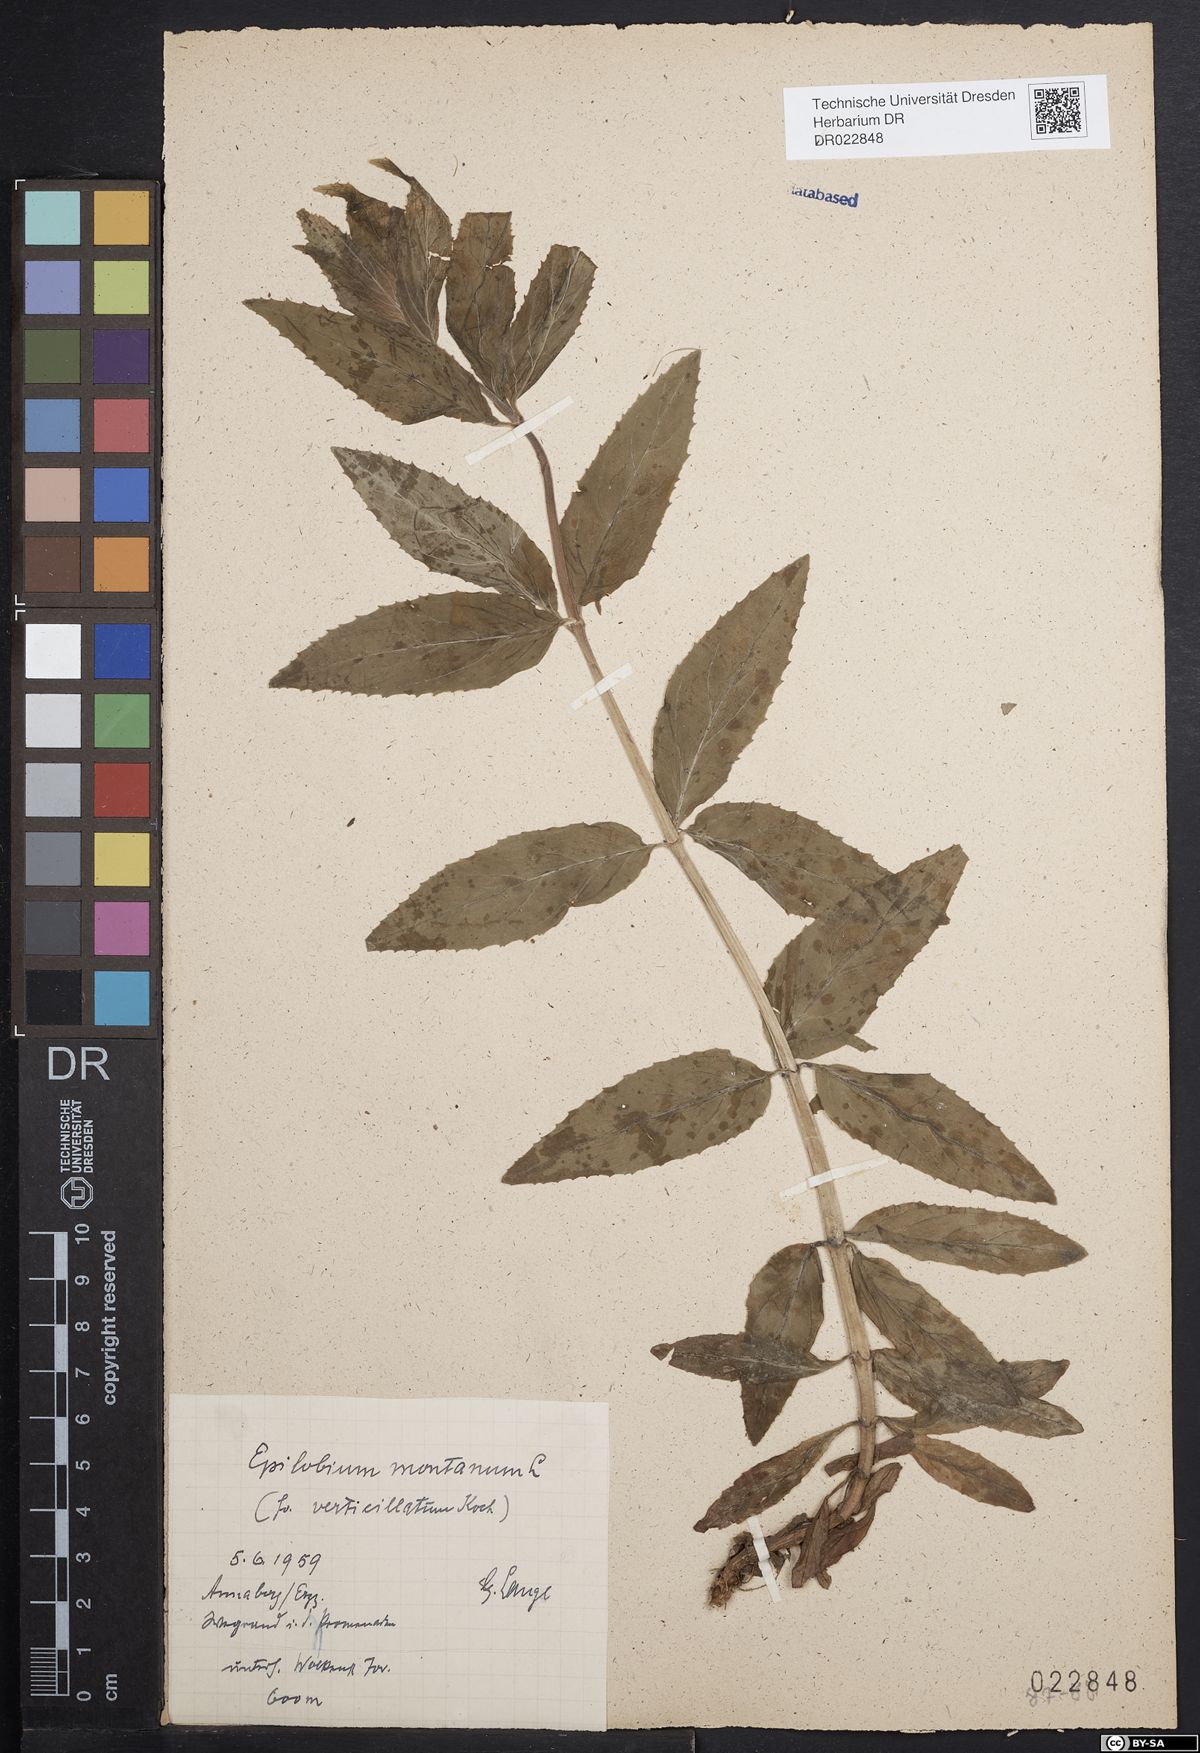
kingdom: Plantae
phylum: Tracheophyta
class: Magnoliopsida
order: Myrtales
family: Onagraceae
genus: Epilobium
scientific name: Epilobium montanum
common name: Broad-leaved willowherb
